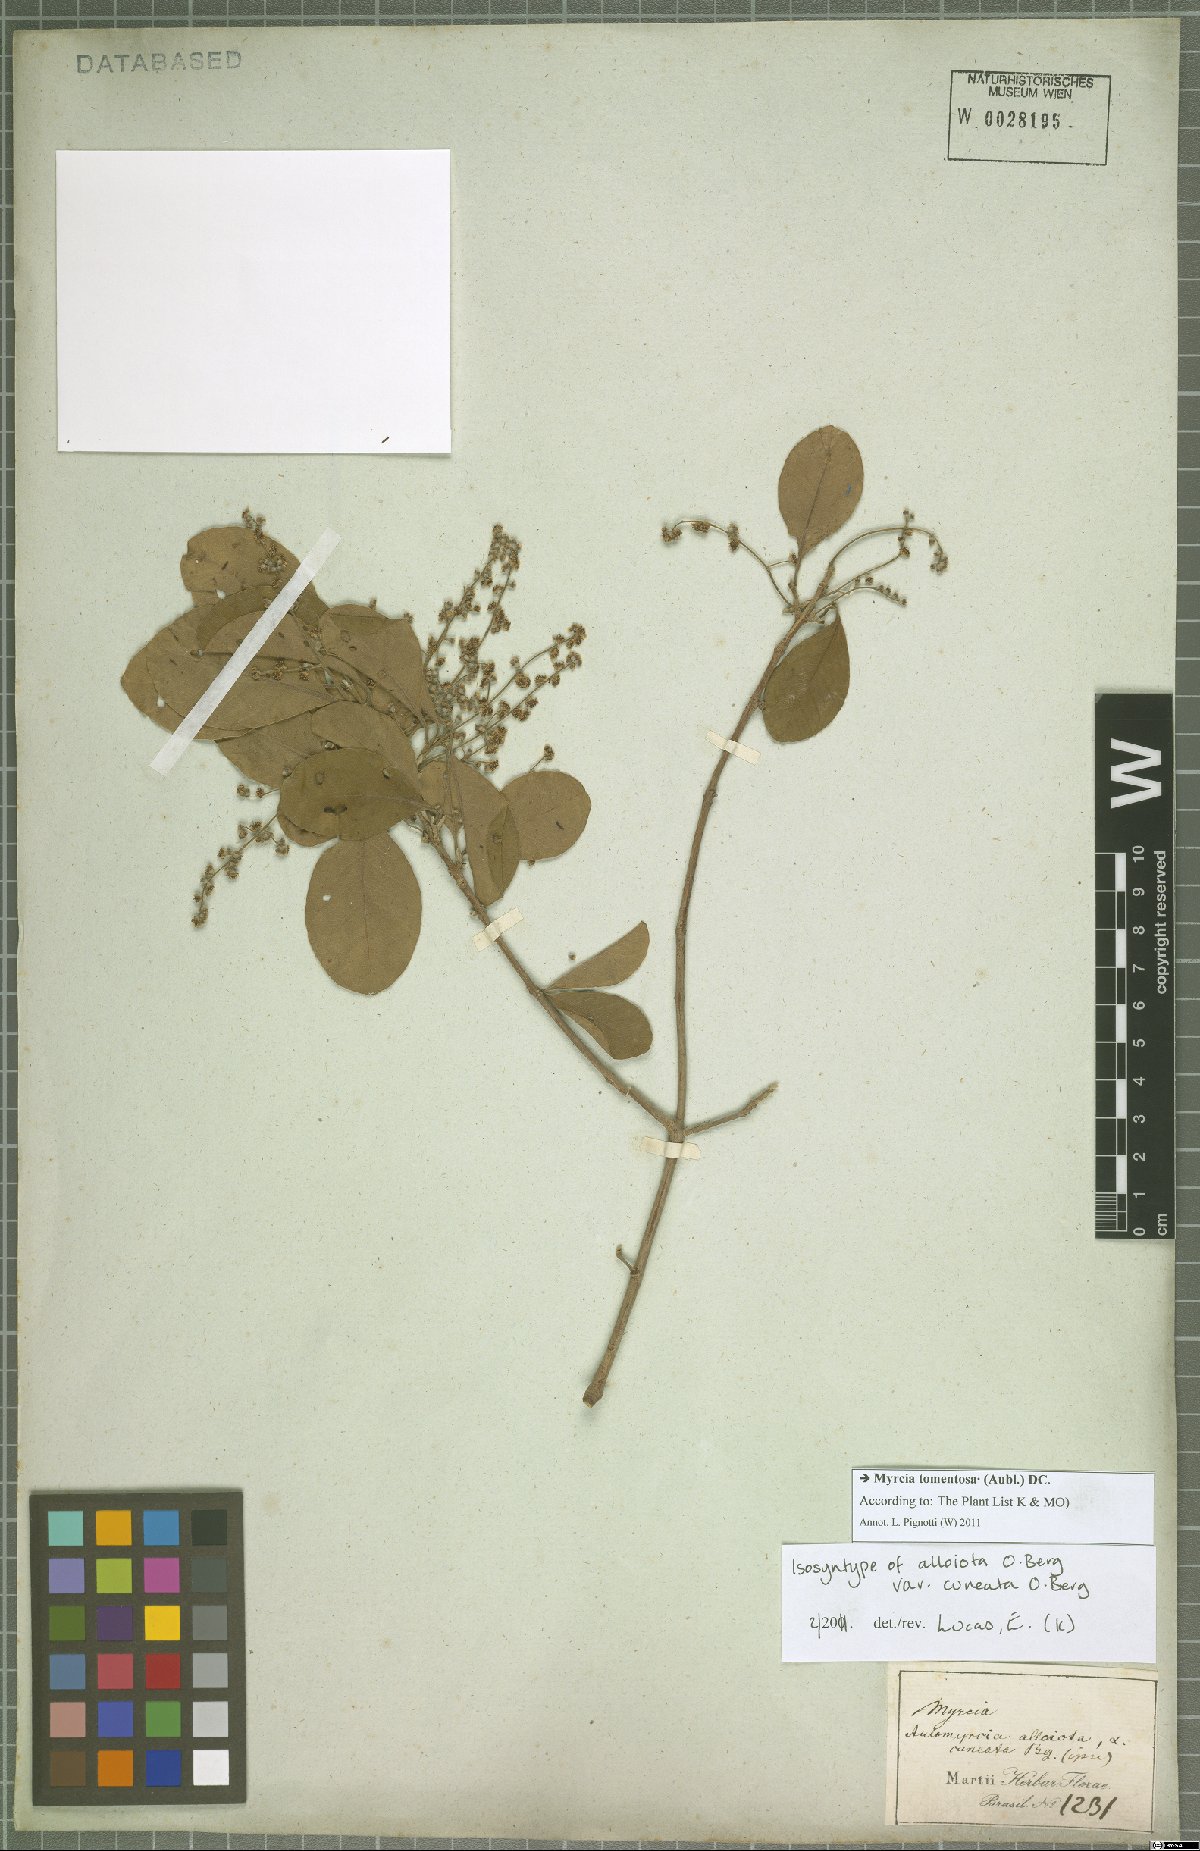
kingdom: Plantae
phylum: Tracheophyta
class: Magnoliopsida
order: Myrtales
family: Myrtaceae
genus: Myrcia
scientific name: Myrcia tomentosa
